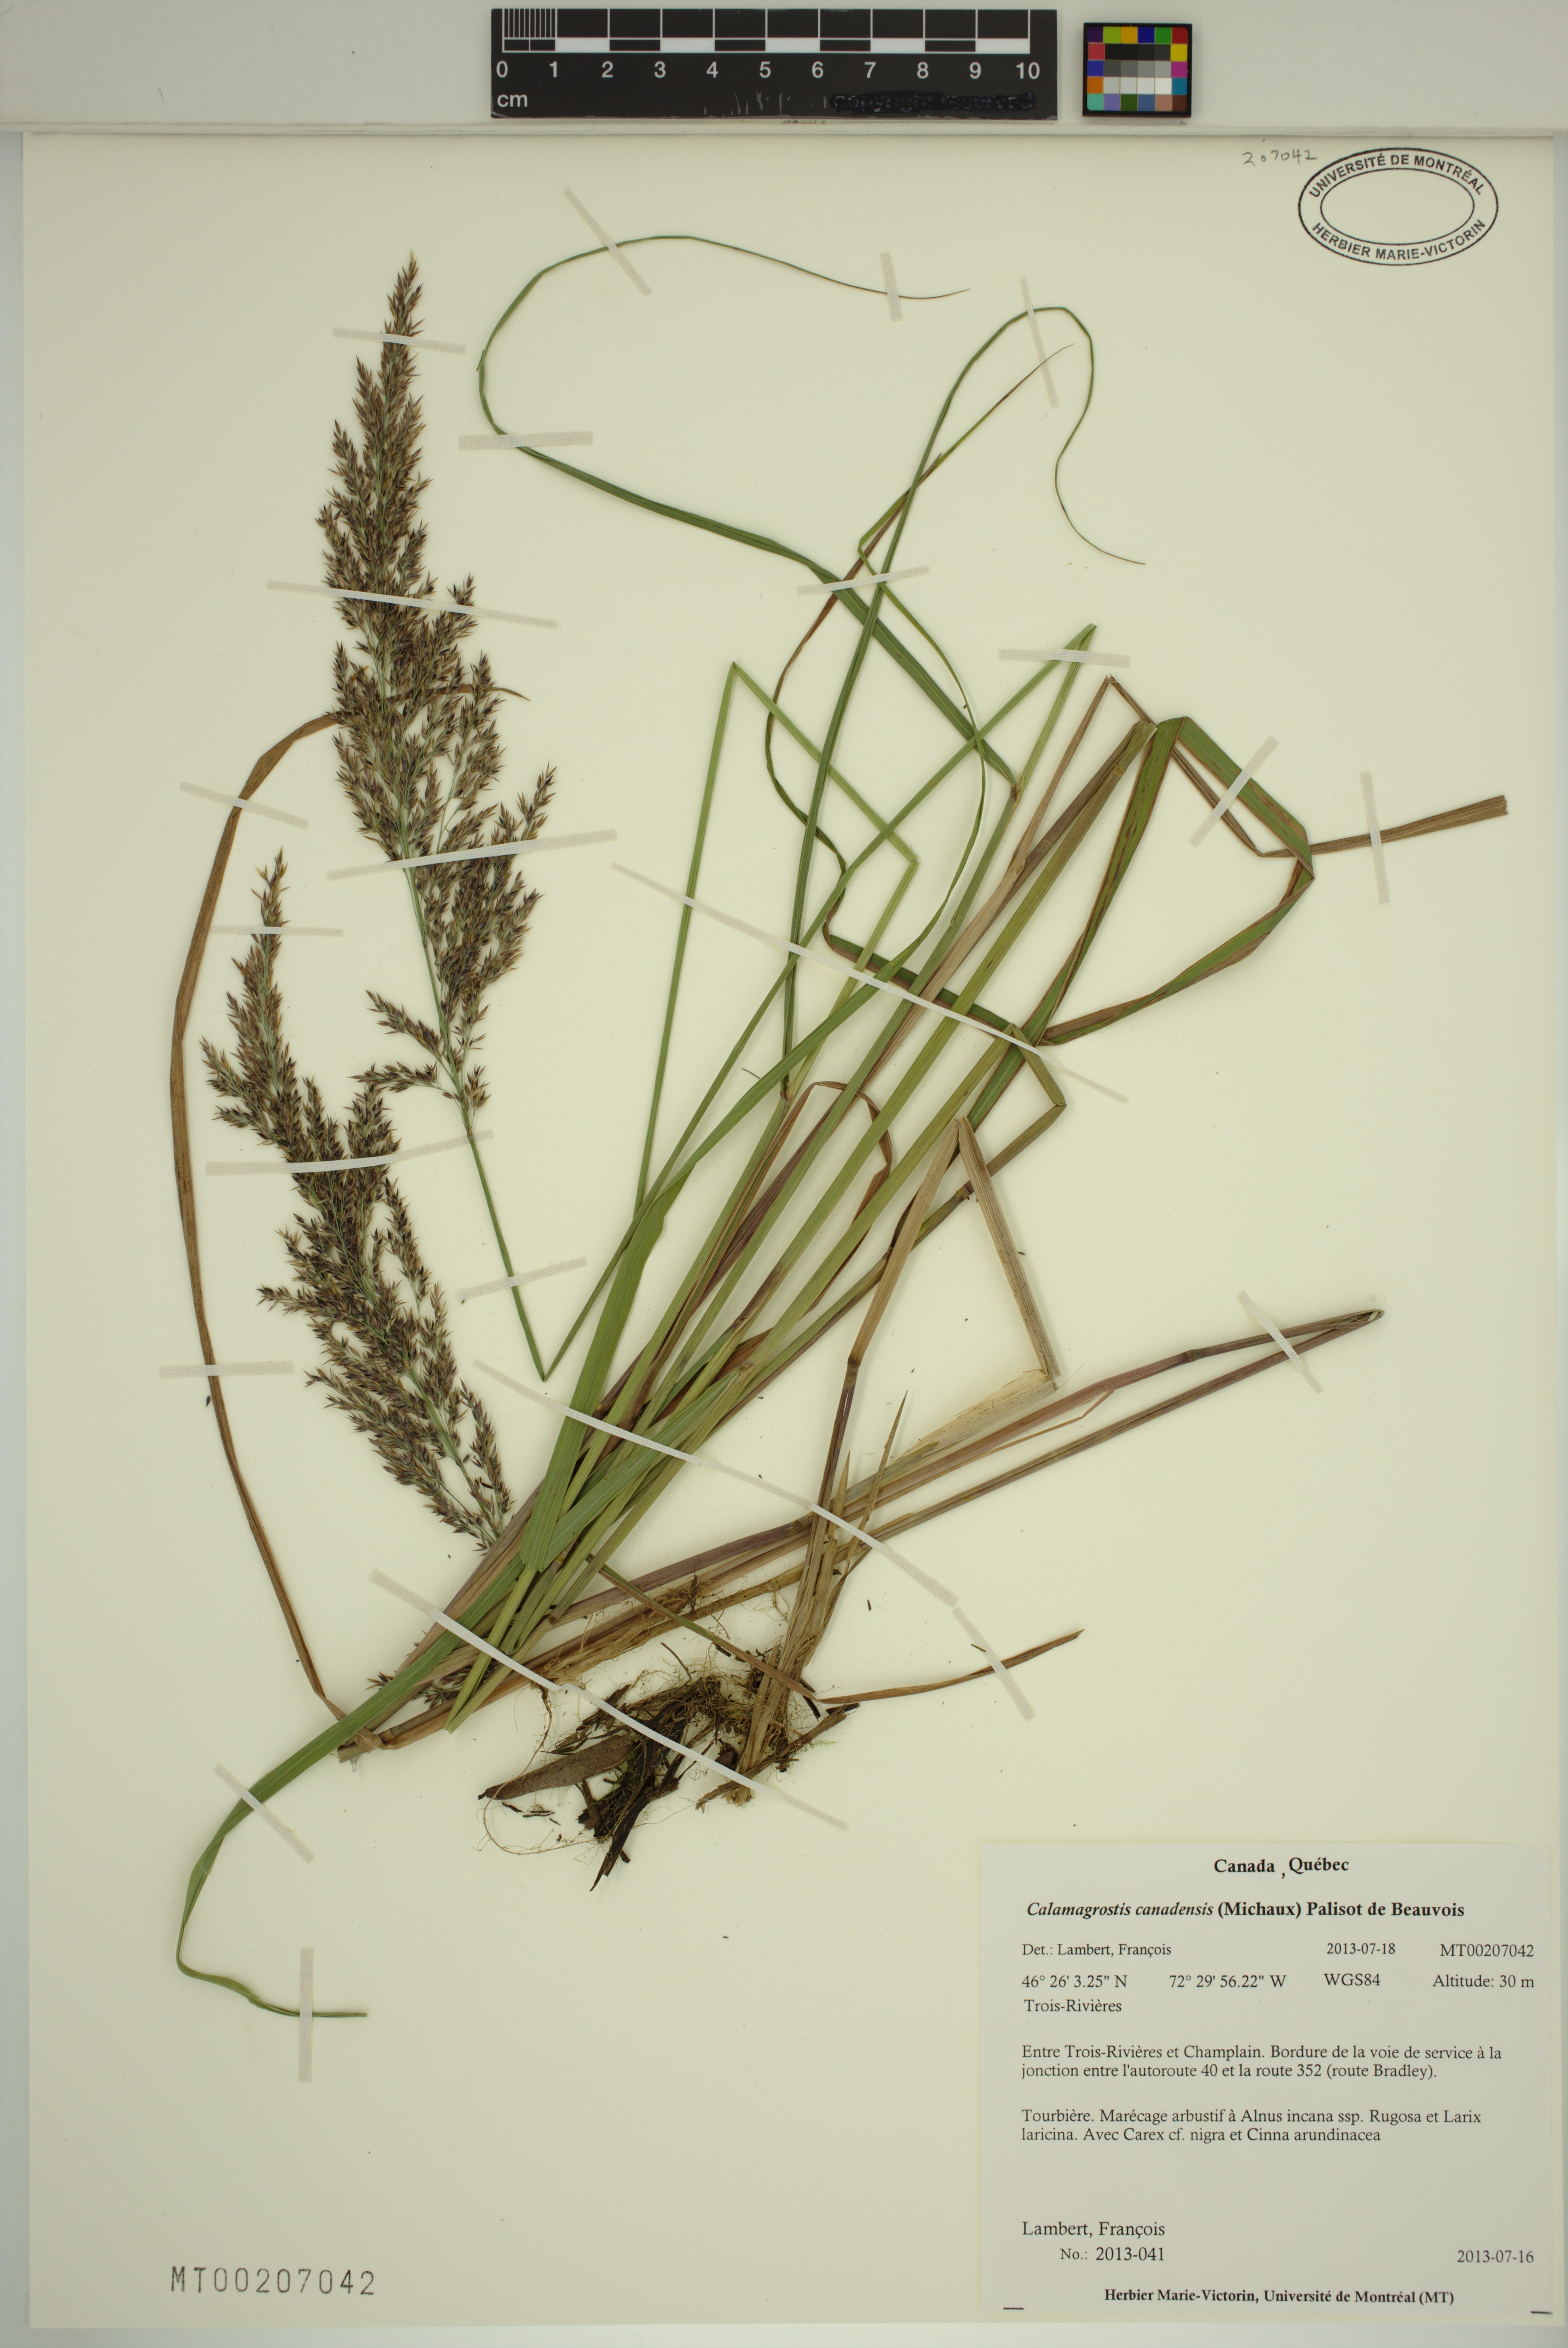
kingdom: Plantae
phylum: Tracheophyta
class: Liliopsida
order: Poales
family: Poaceae
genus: Calamagrostis
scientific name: Calamagrostis canadensis
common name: Canada bluejoint
